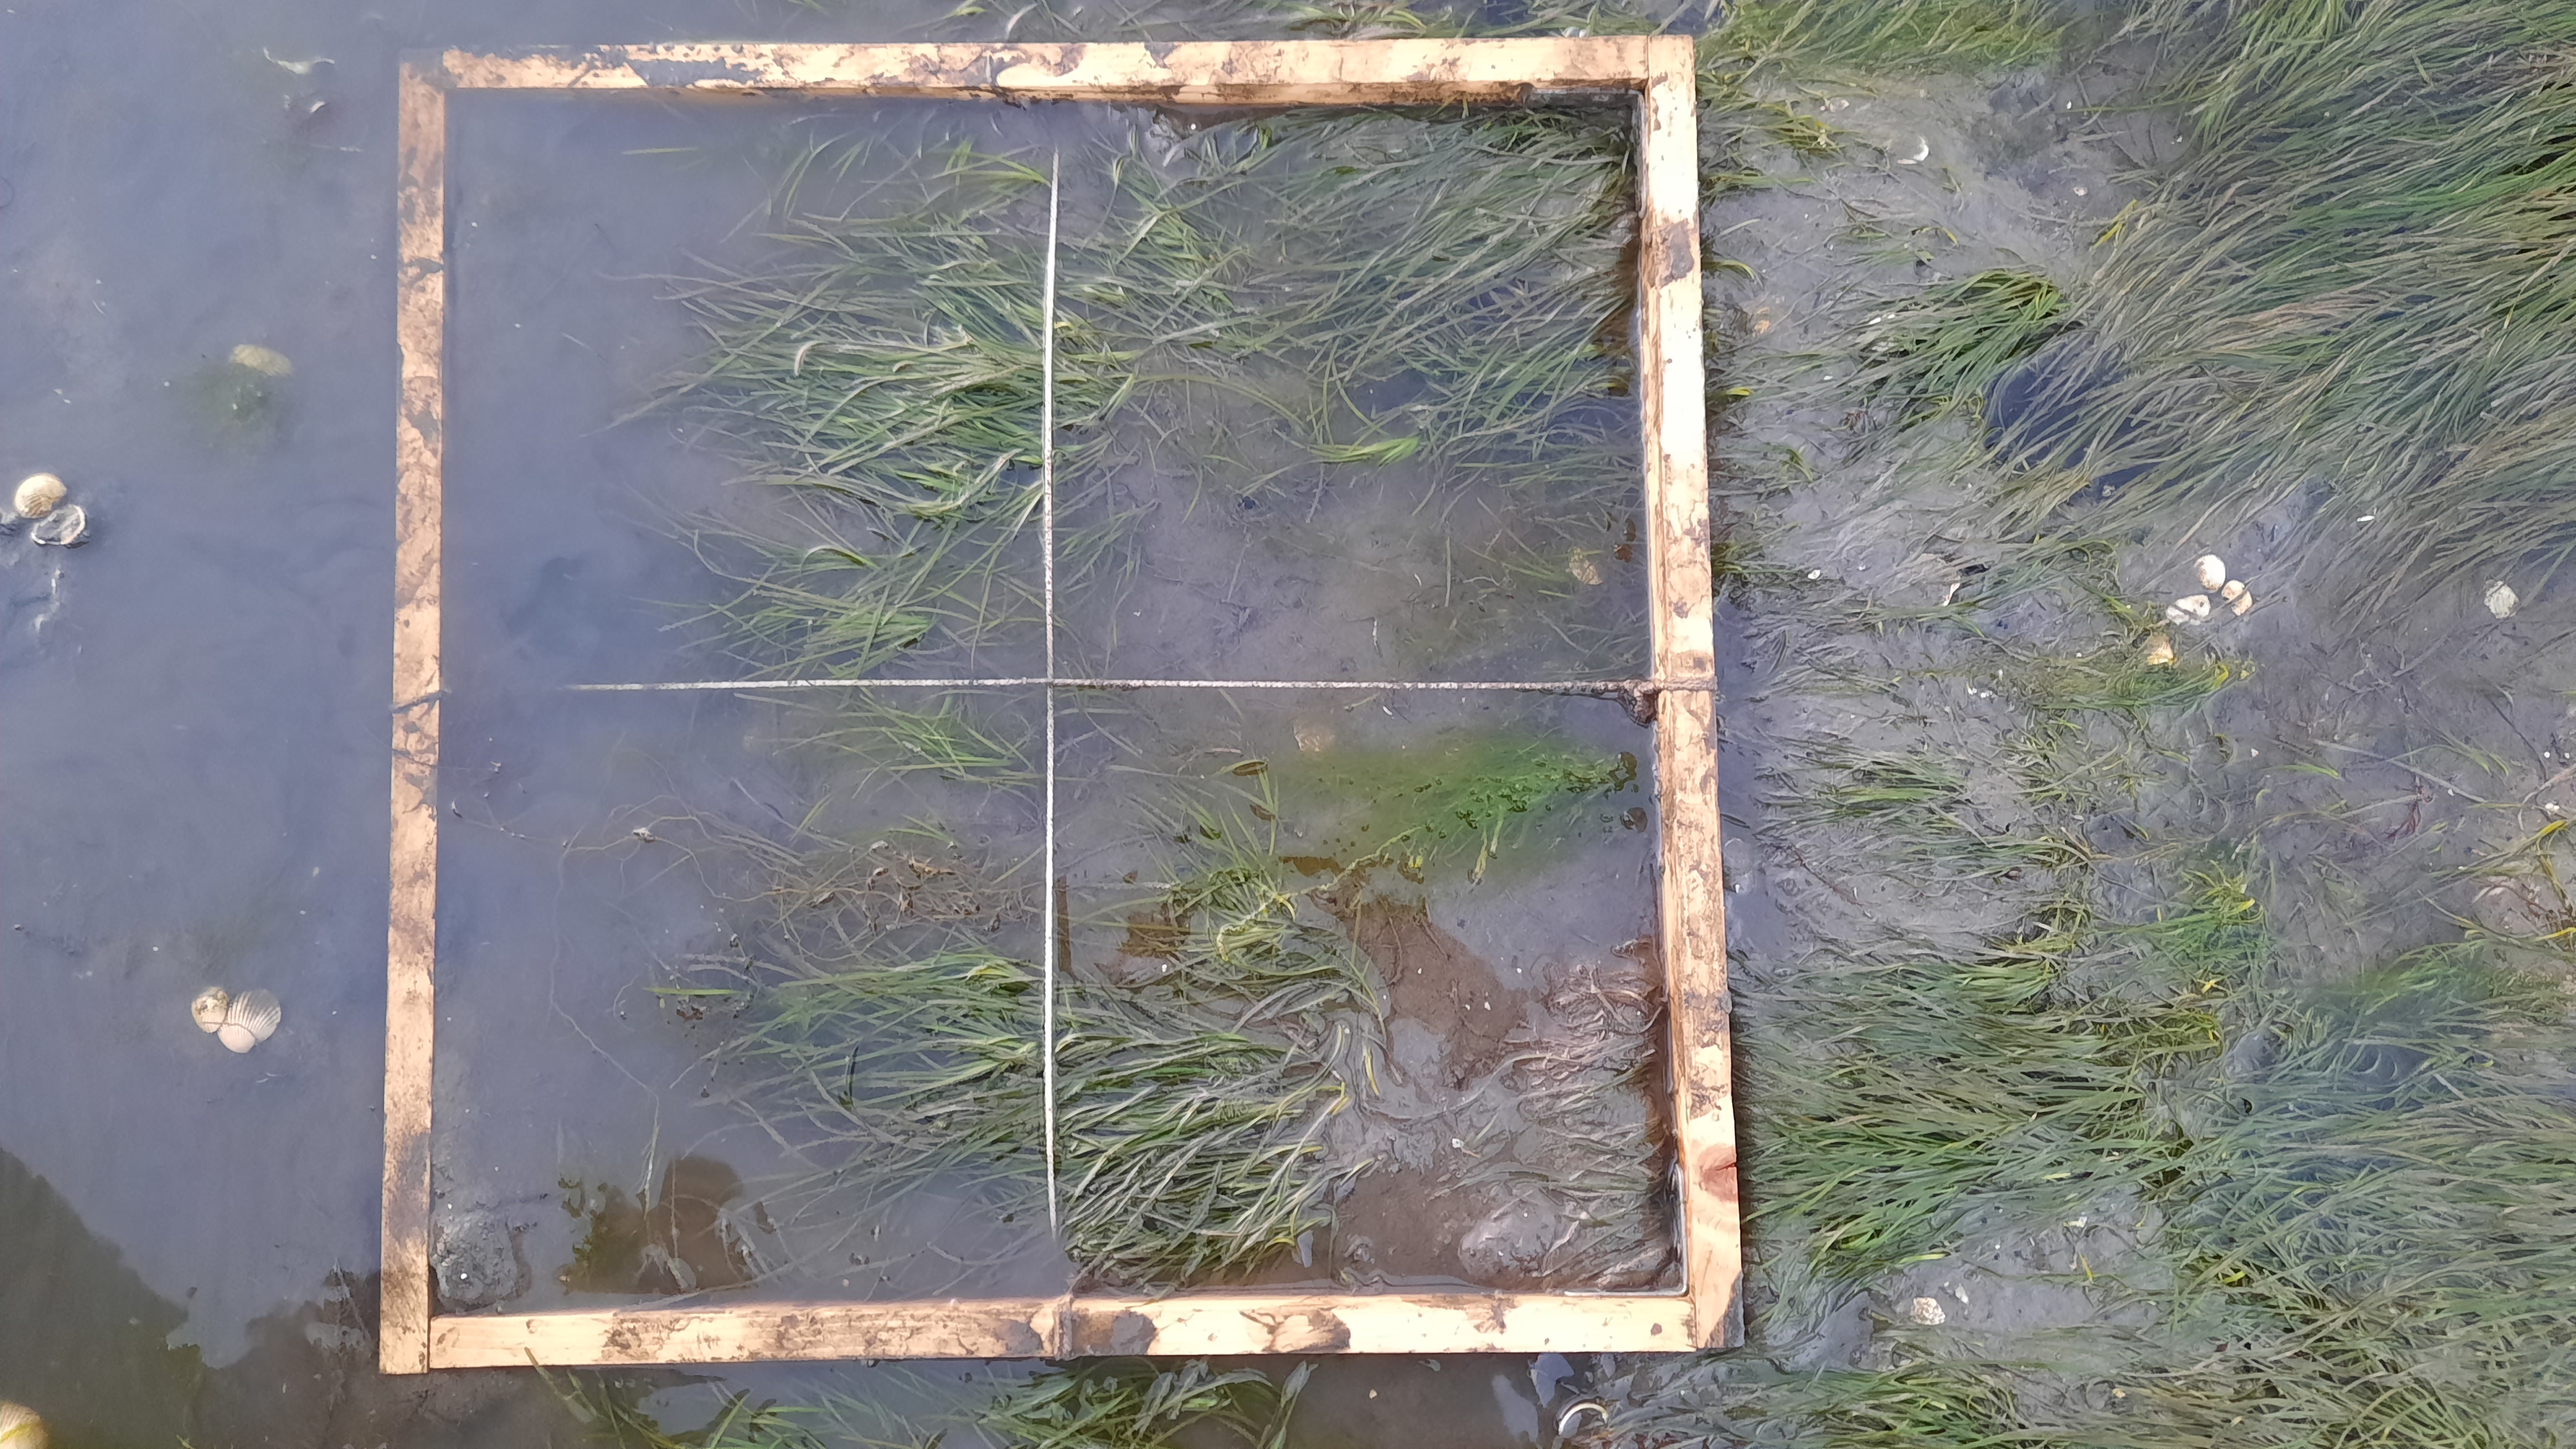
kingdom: Plantae
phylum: Chlorophyta
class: Ulvophyceae
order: Ulvales
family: Ulvaceae
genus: Ulva
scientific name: Ulva
